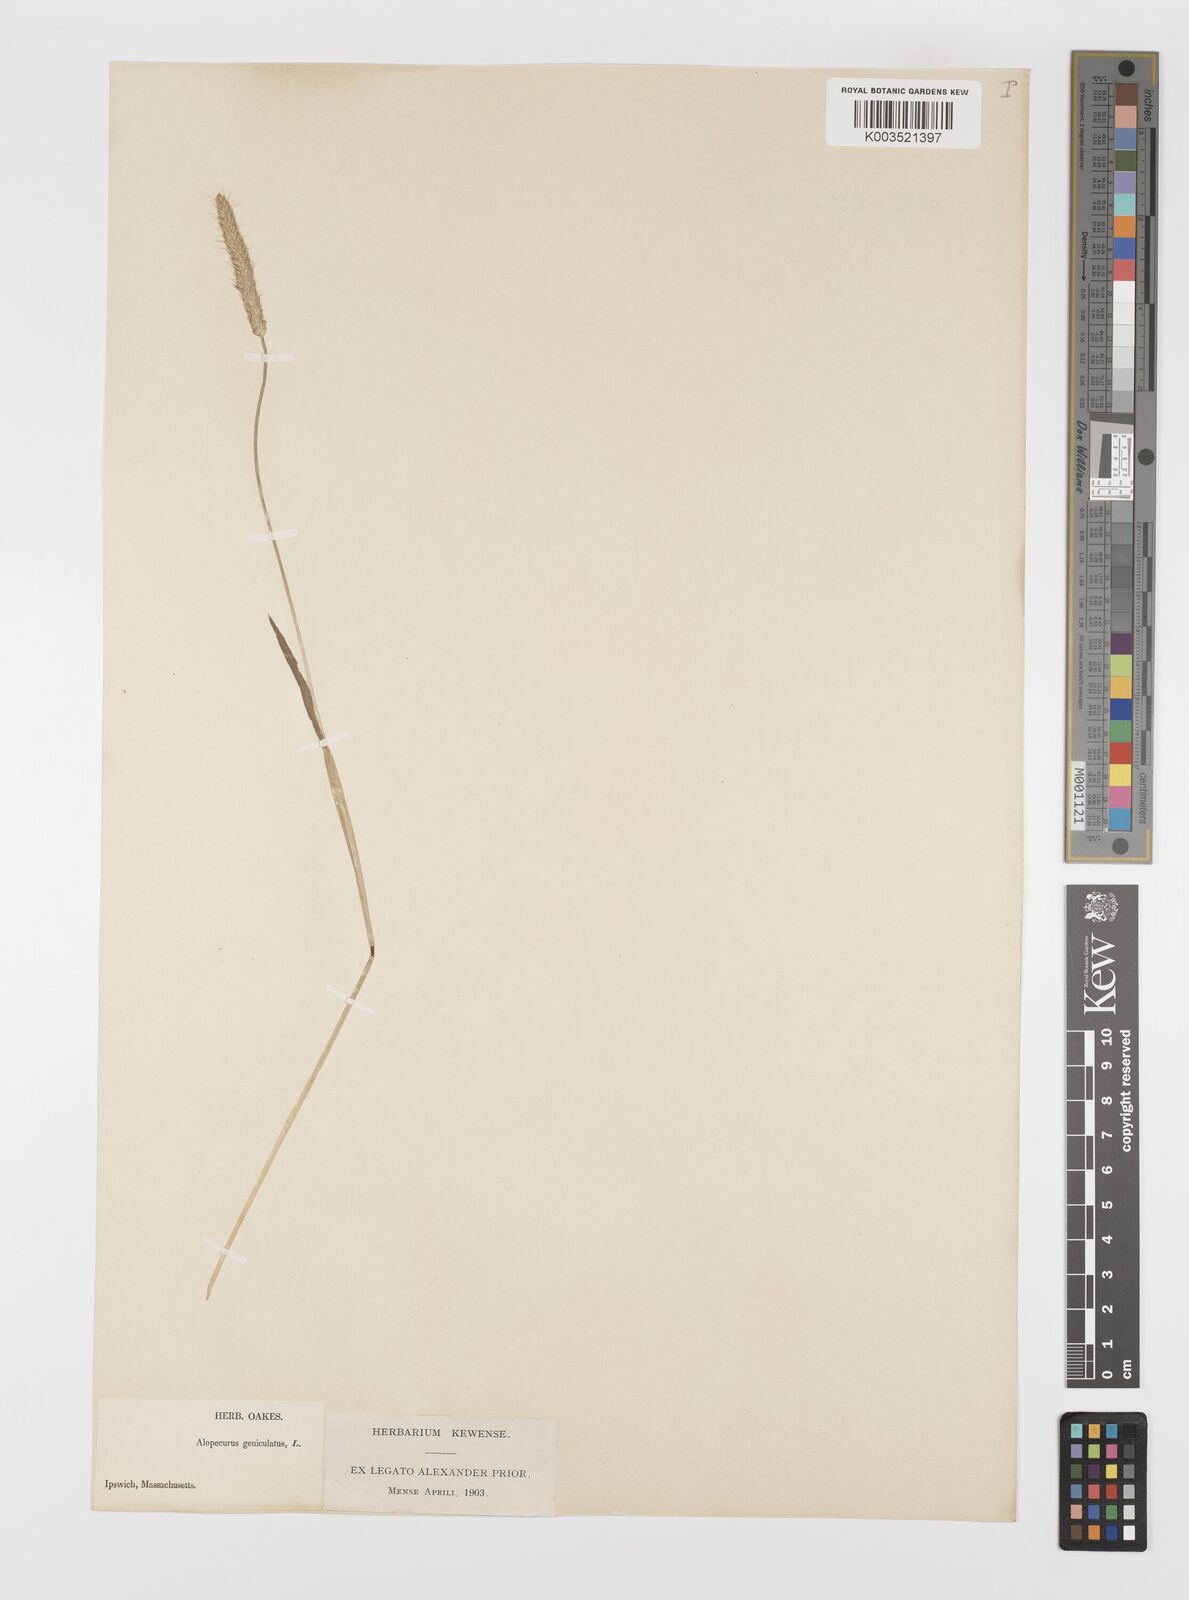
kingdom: Plantae
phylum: Tracheophyta
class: Liliopsida
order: Poales
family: Poaceae
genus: Alopecurus
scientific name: Alopecurus geniculatus
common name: Water foxtail
